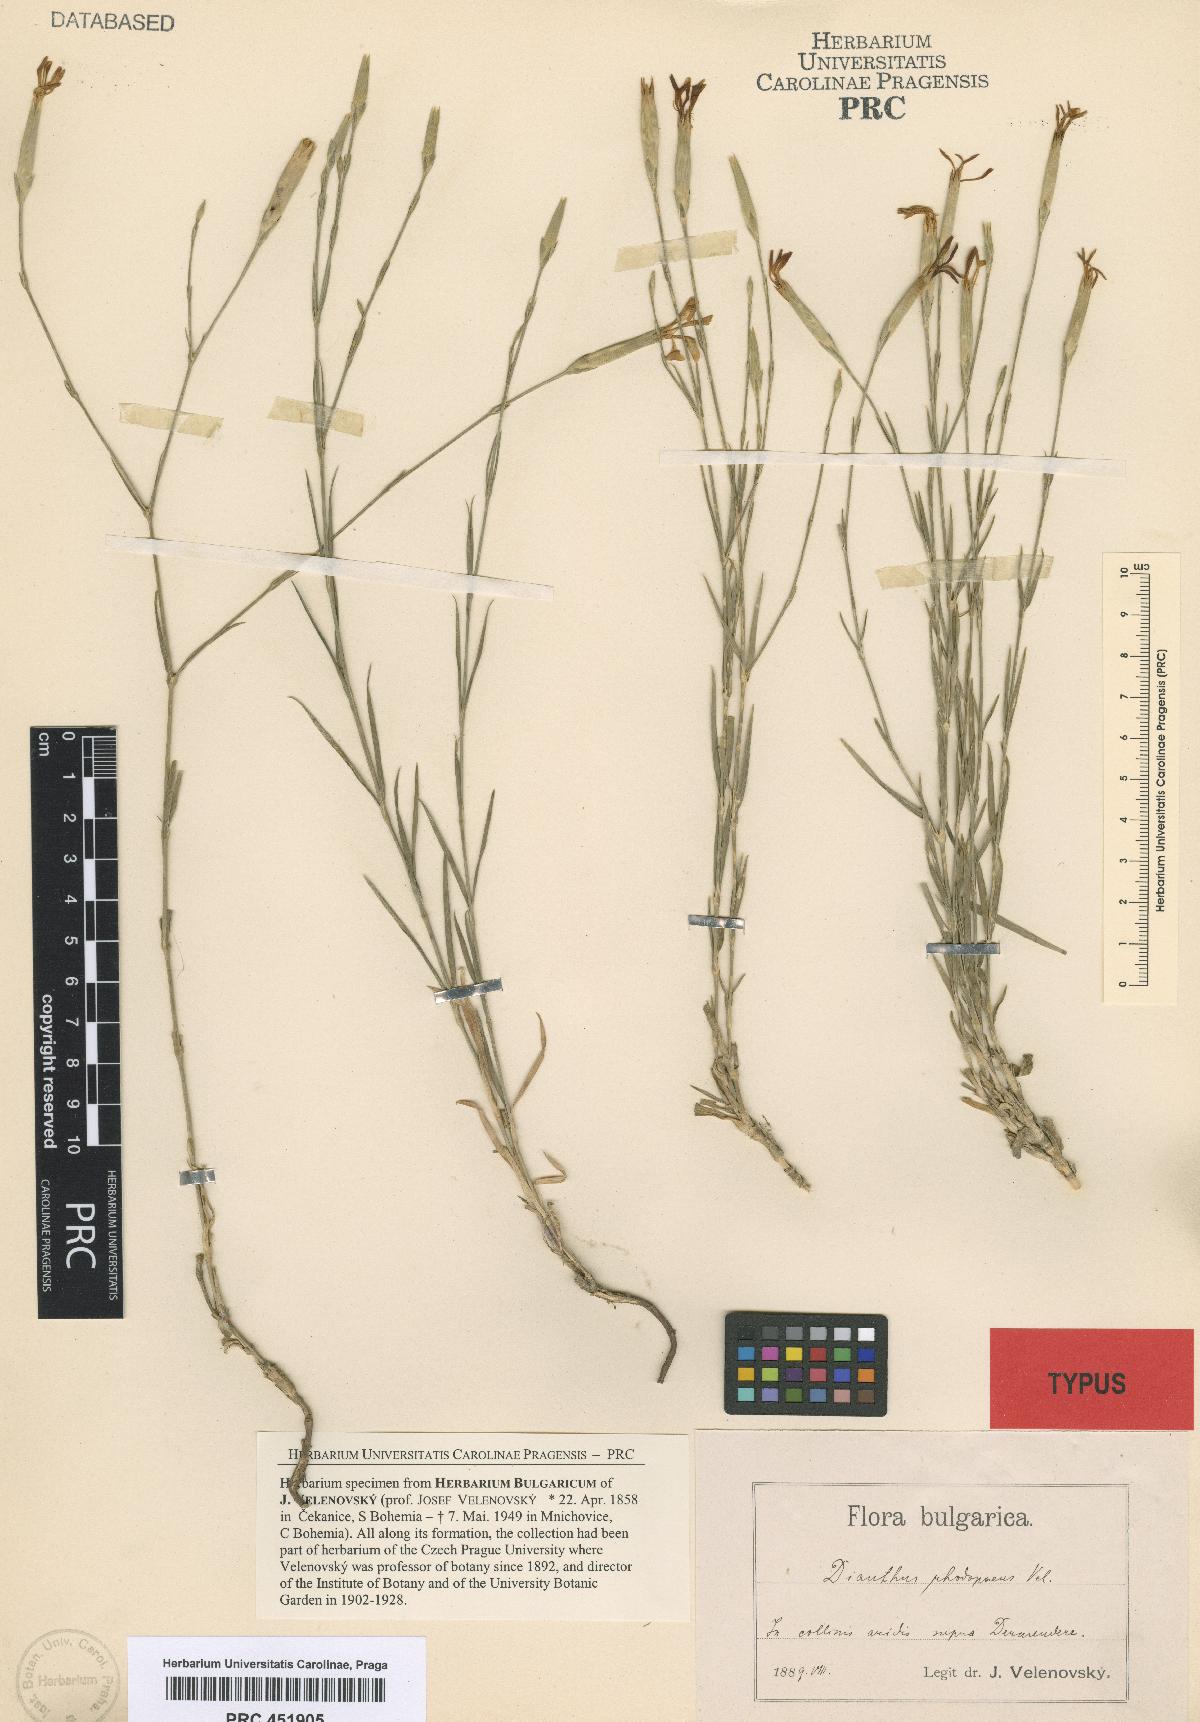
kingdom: Plantae
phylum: Tracheophyta
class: Magnoliopsida
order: Caryophyllales
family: Caryophyllaceae
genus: Dianthus
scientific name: Dianthus monadelphus
